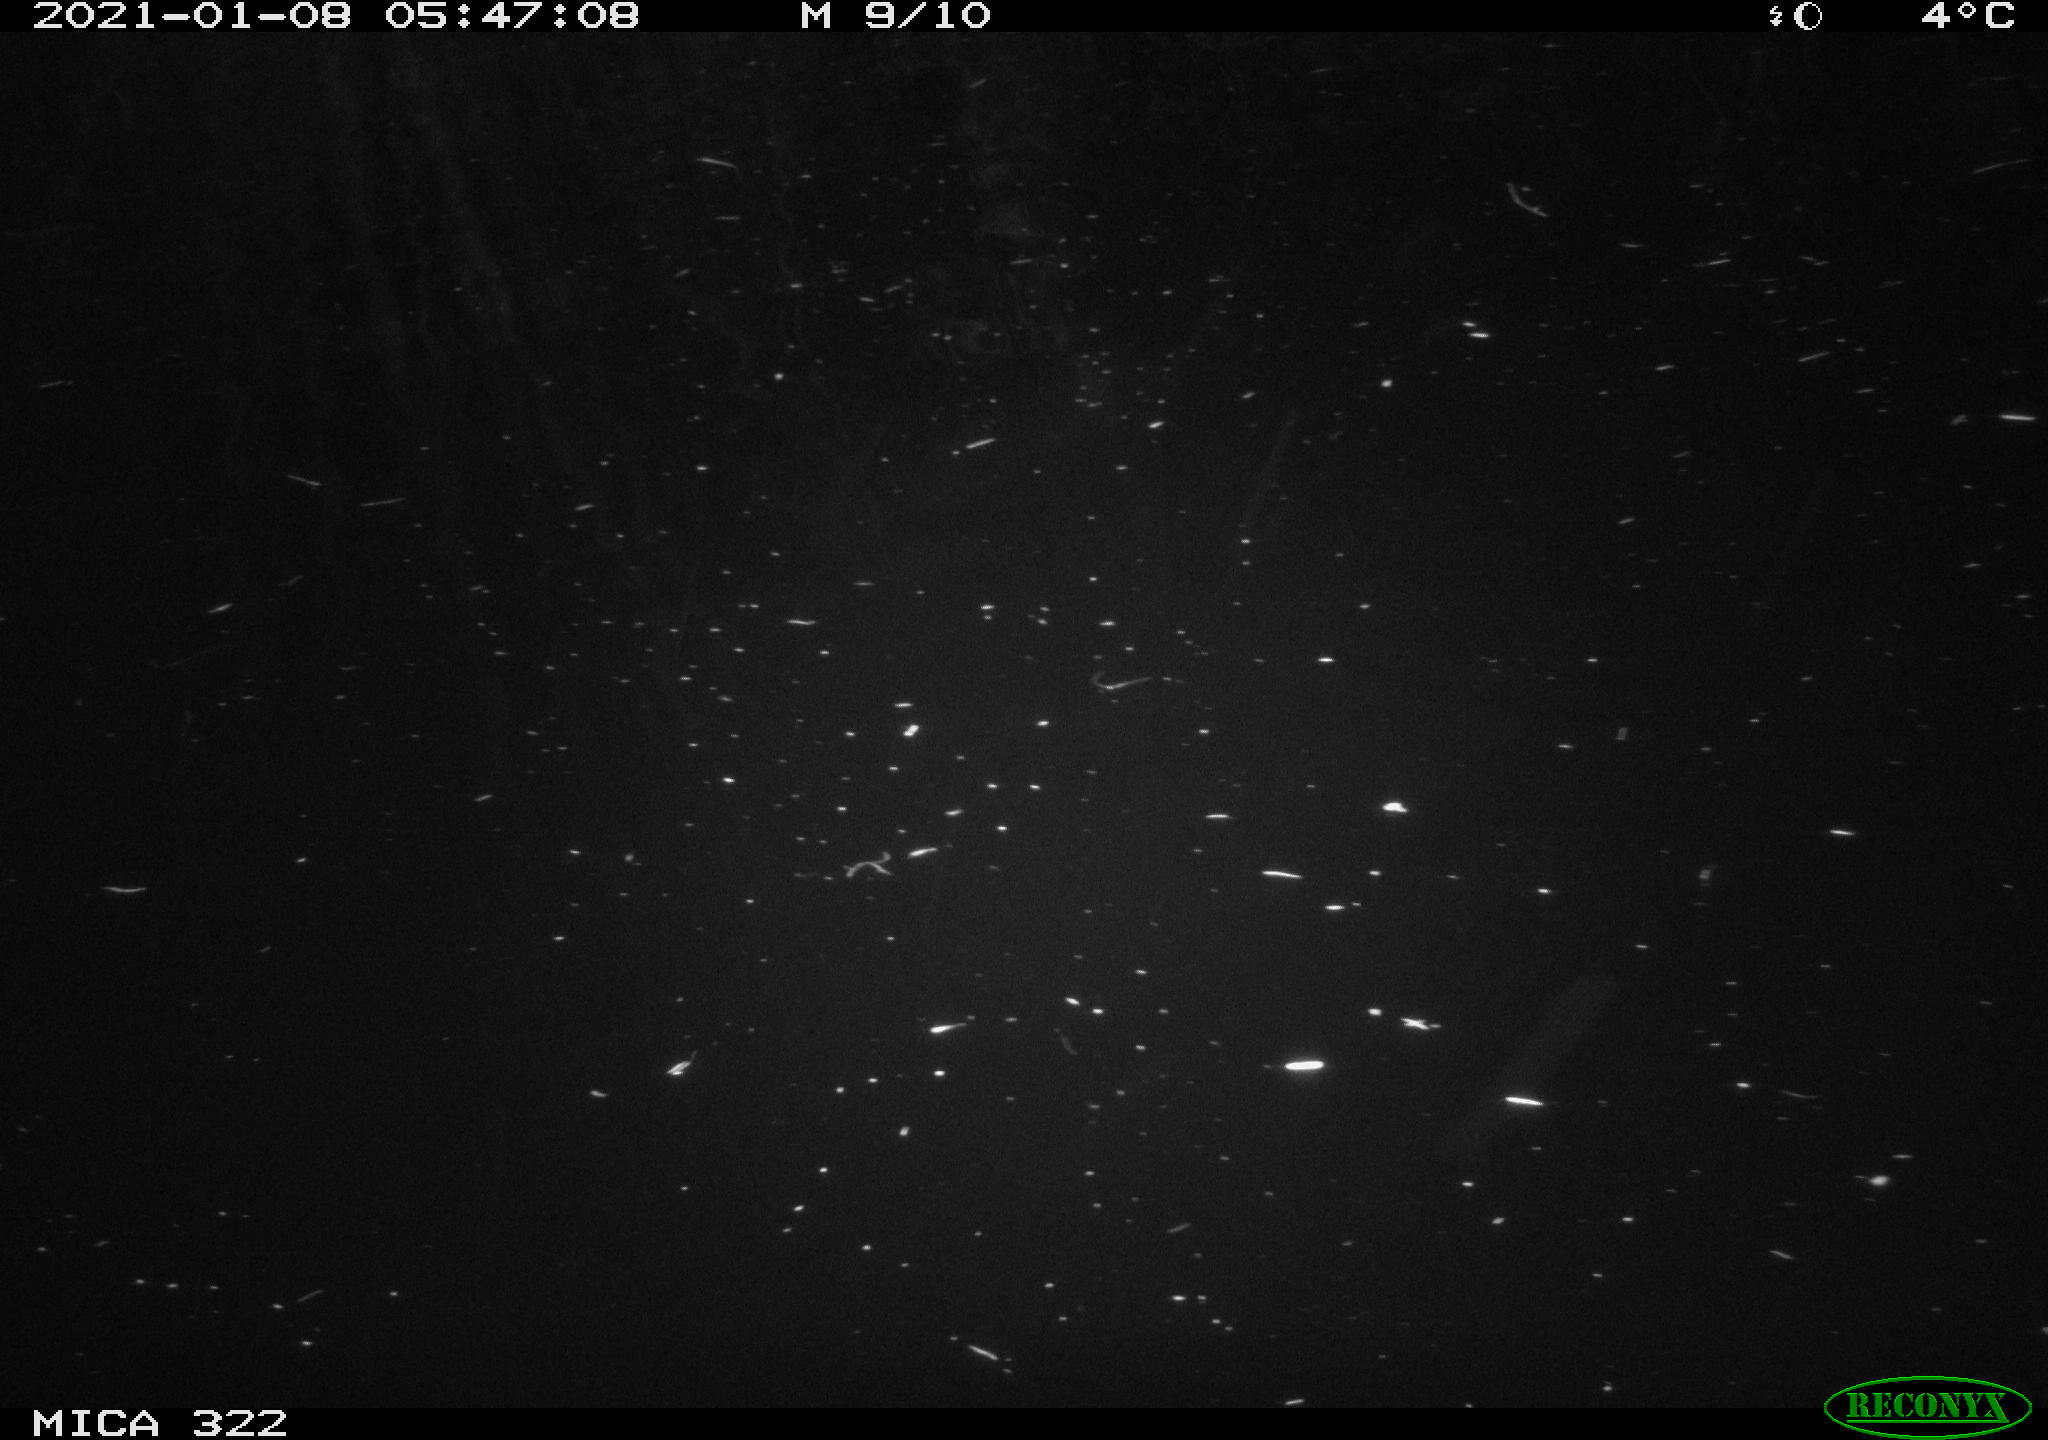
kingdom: Animalia
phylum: Chordata
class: Mammalia
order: Rodentia
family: Muridae
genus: Rattus
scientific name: Rattus norvegicus
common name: Brown rat
